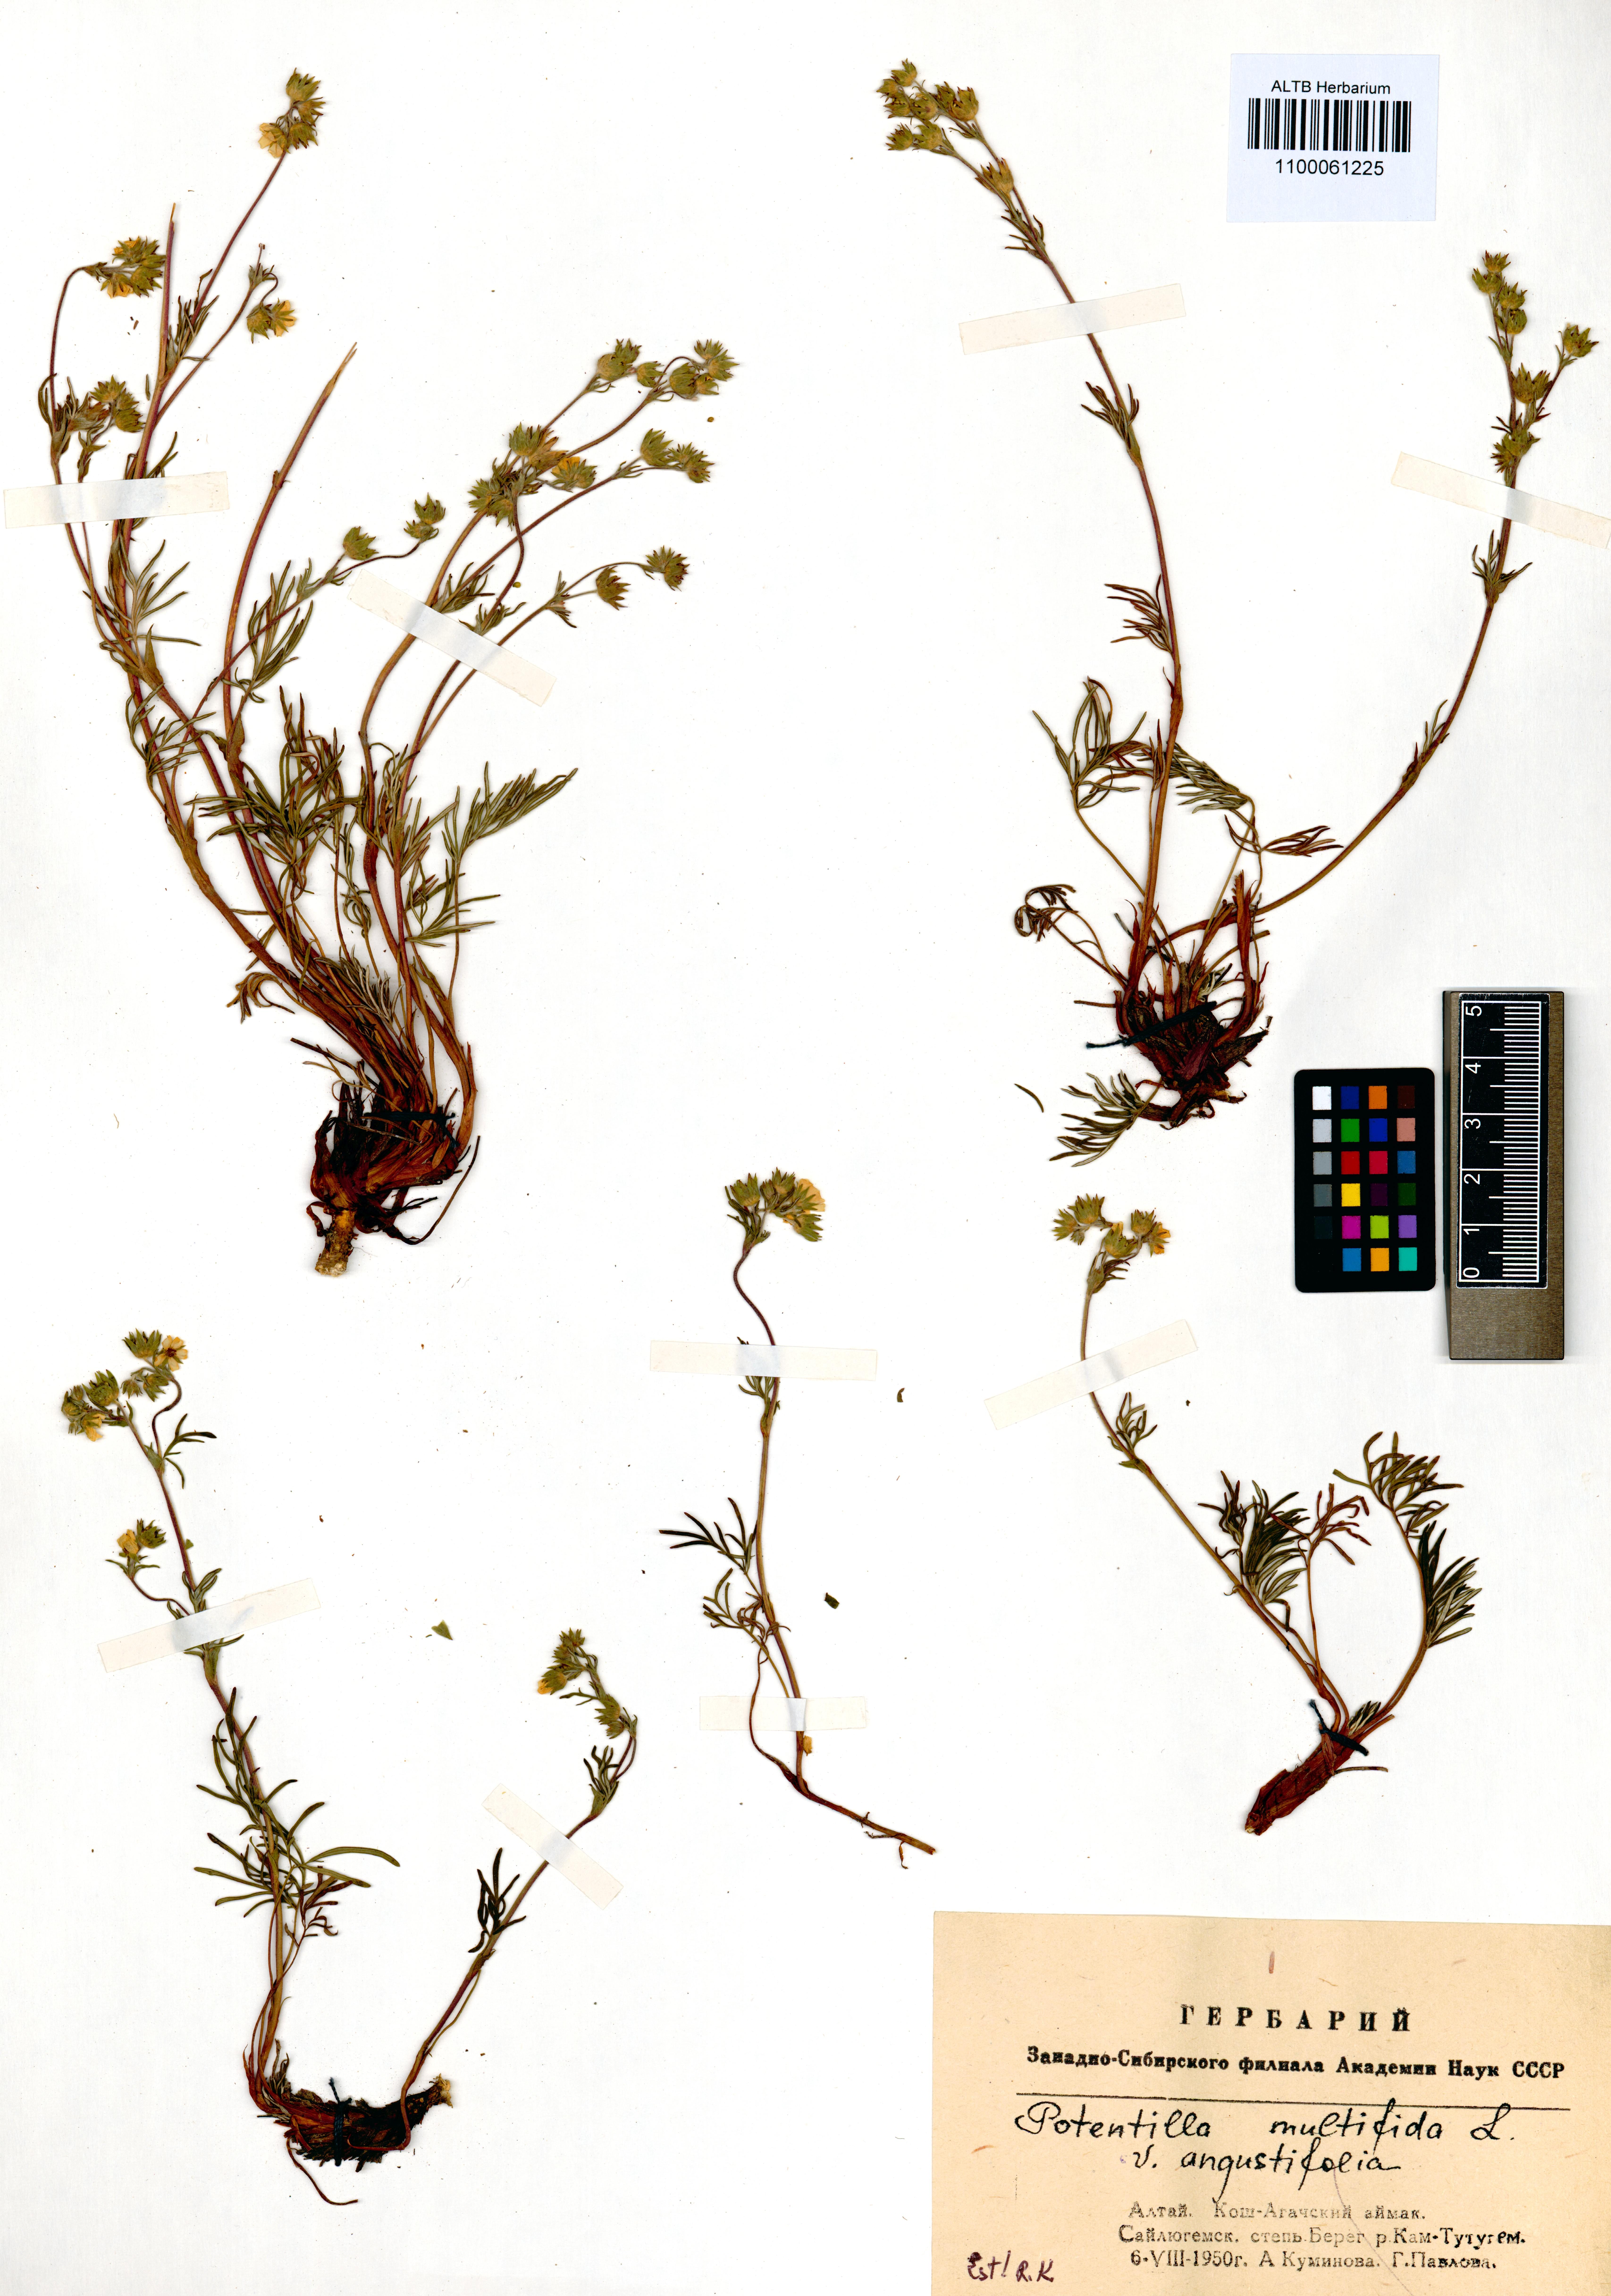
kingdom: Plantae
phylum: Tracheophyta
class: Magnoliopsida
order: Rosales
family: Rosaceae
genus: Potentilla
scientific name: Potentilla multifida
